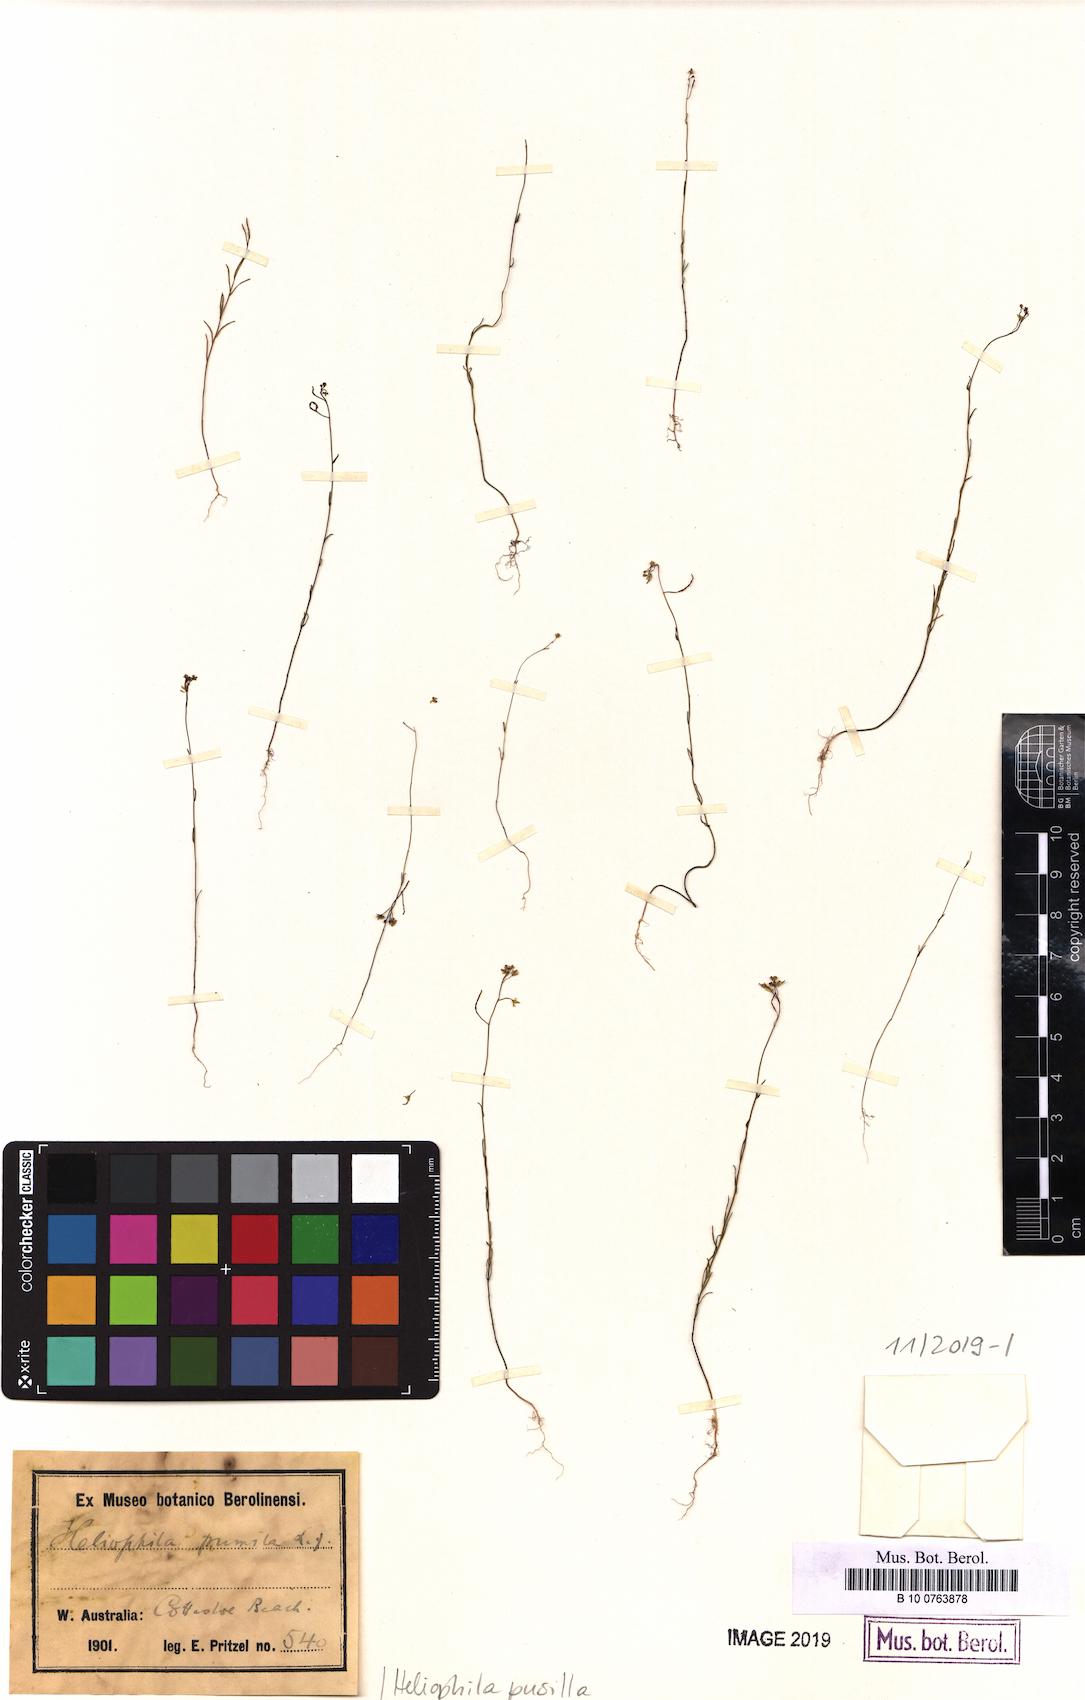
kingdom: Plantae
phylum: Tracheophyta
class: Magnoliopsida
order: Brassicales
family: Brassicaceae
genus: Heliophila
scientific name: Heliophila pusilla
